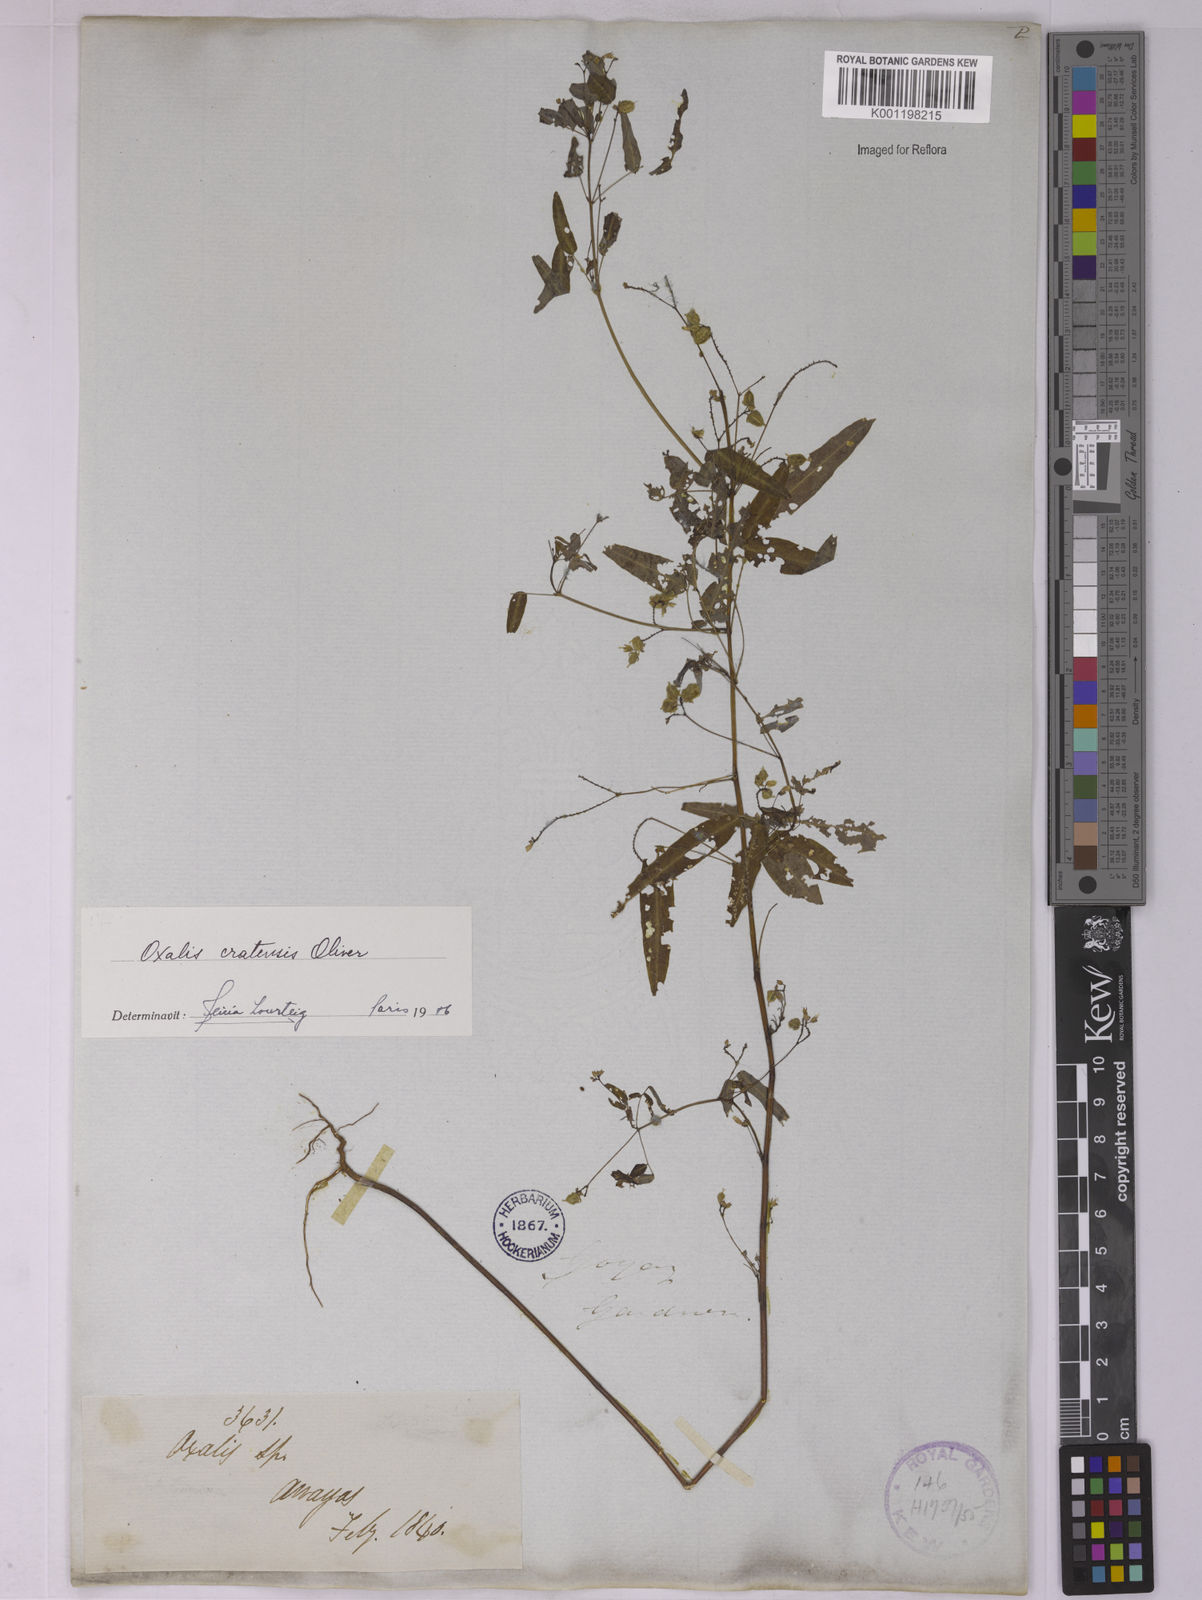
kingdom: Plantae
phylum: Tracheophyta
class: Magnoliopsida
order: Oxalidales
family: Oxalidaceae
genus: Oxalis
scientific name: Oxalis cratensis
